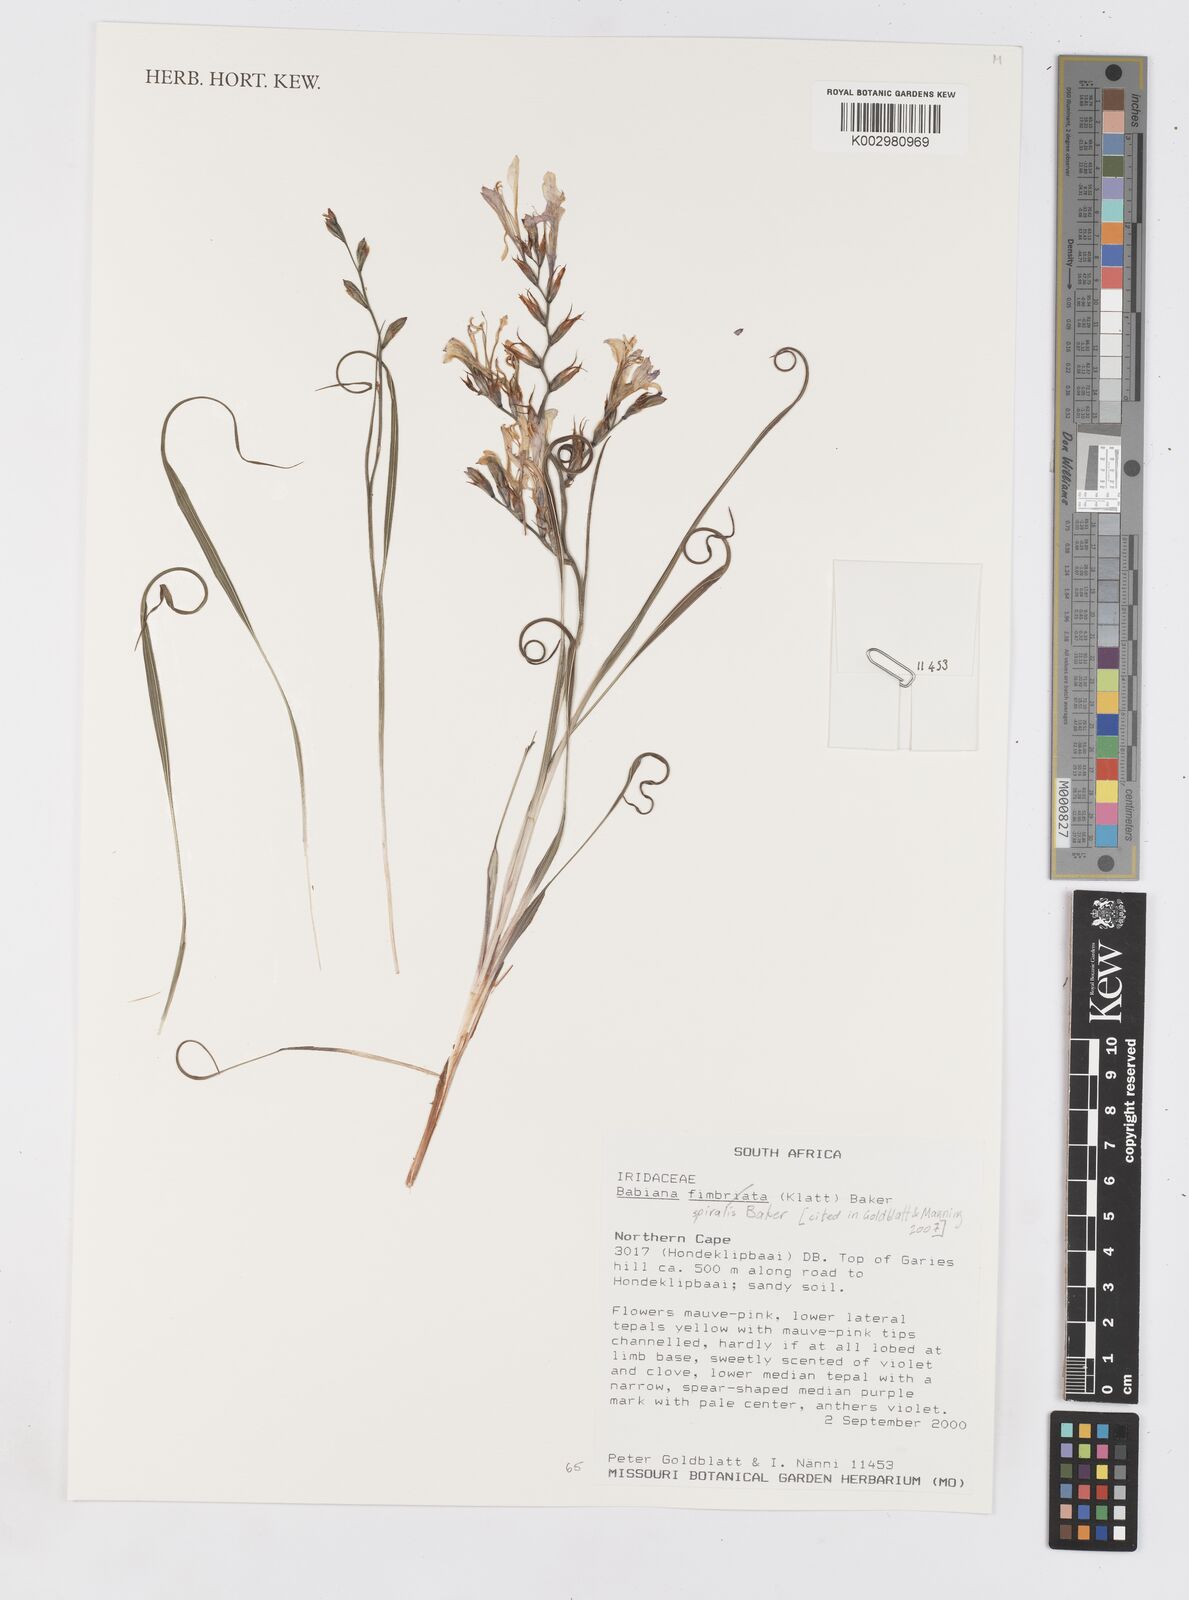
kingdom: Plantae
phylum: Tracheophyta
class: Liliopsida
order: Asparagales
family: Iridaceae
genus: Babiana
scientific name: Babiana spiralis
